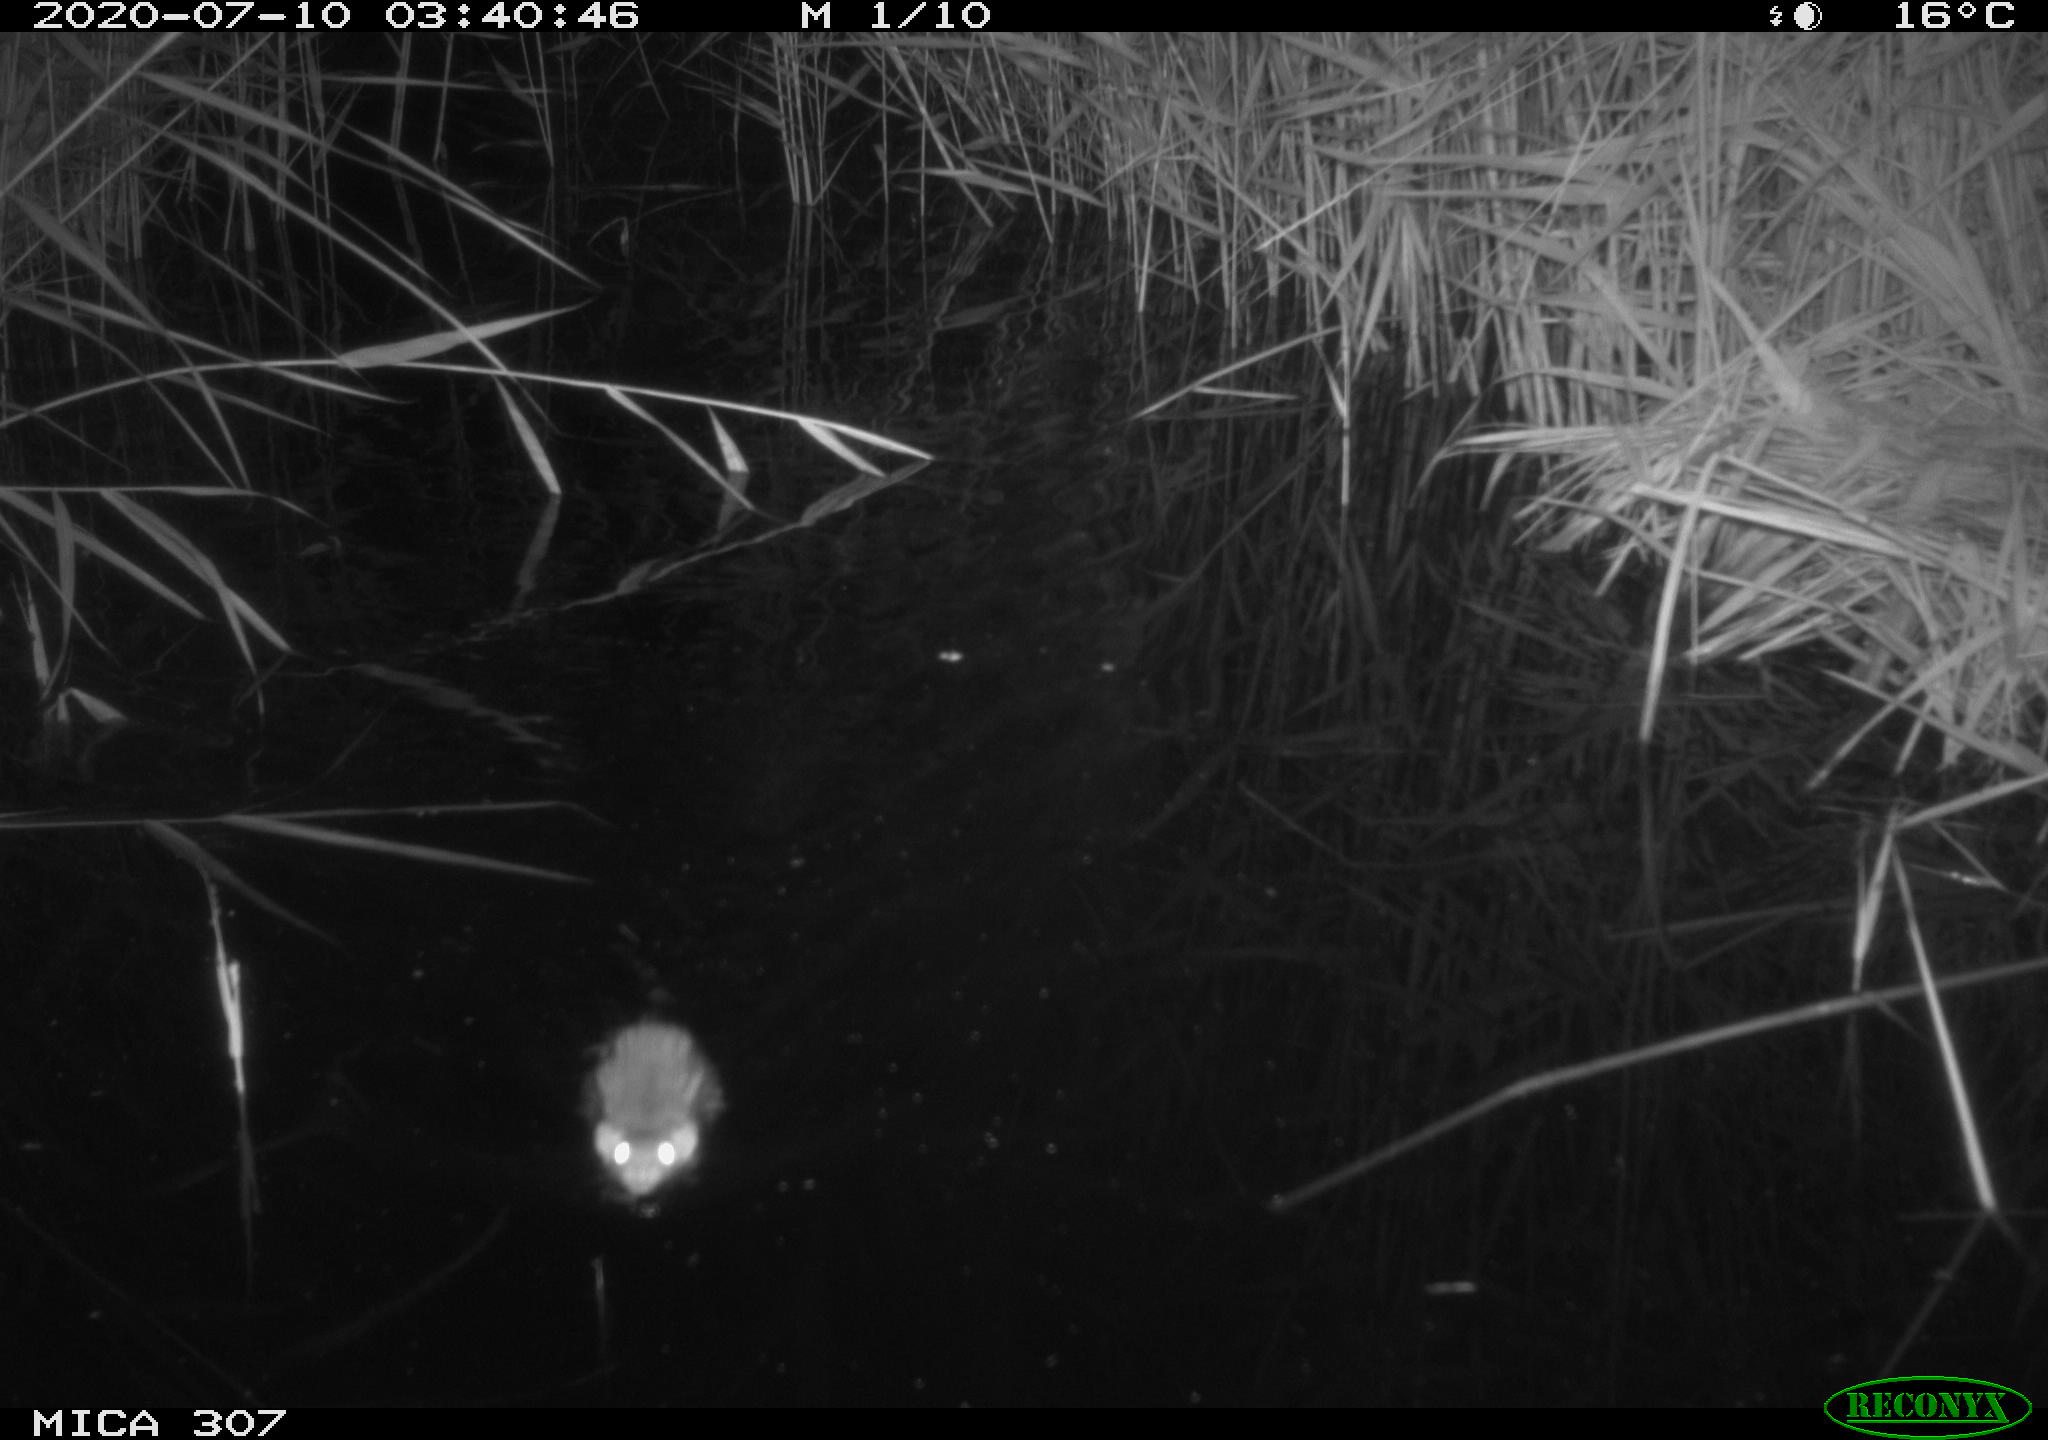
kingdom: Animalia
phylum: Chordata
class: Mammalia
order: Rodentia
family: Muridae
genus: Rattus
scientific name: Rattus norvegicus
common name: Brown rat
